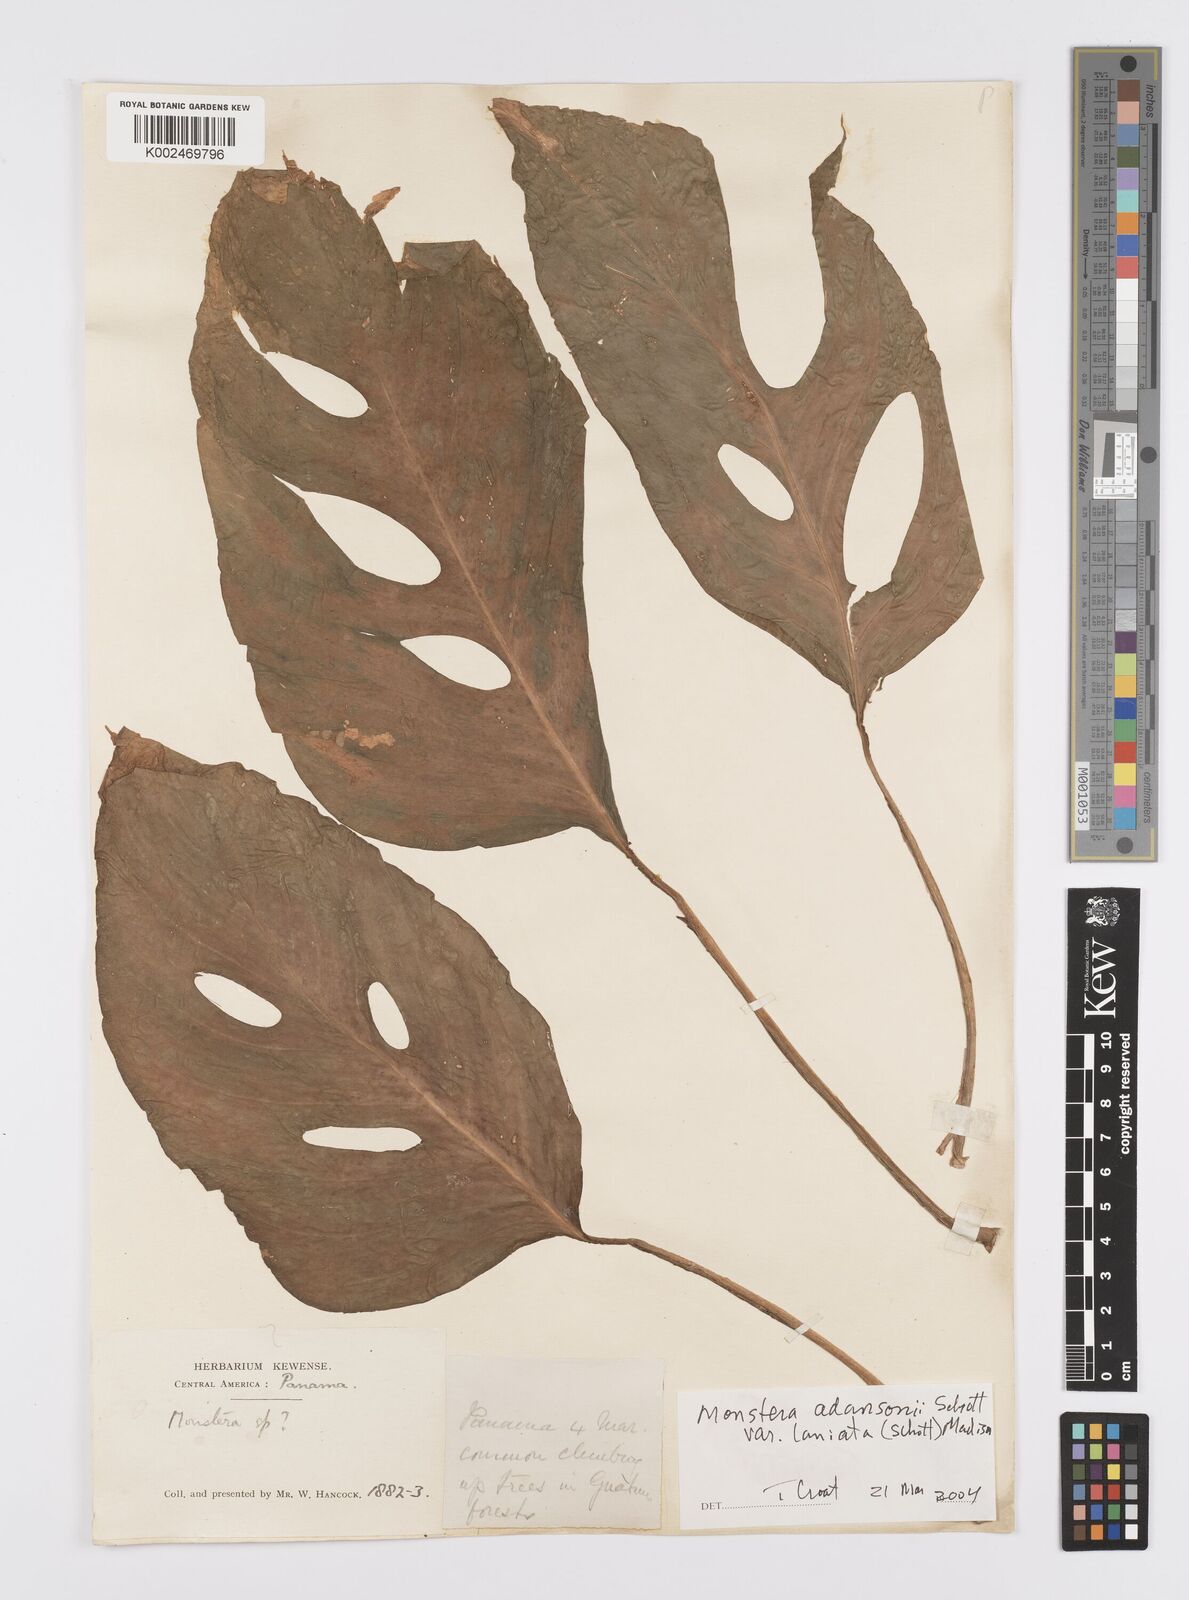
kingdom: Plantae
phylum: Tracheophyta
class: Liliopsida
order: Alismatales
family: Araceae
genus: Monstera
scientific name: Monstera adansonii
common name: Tarovine
